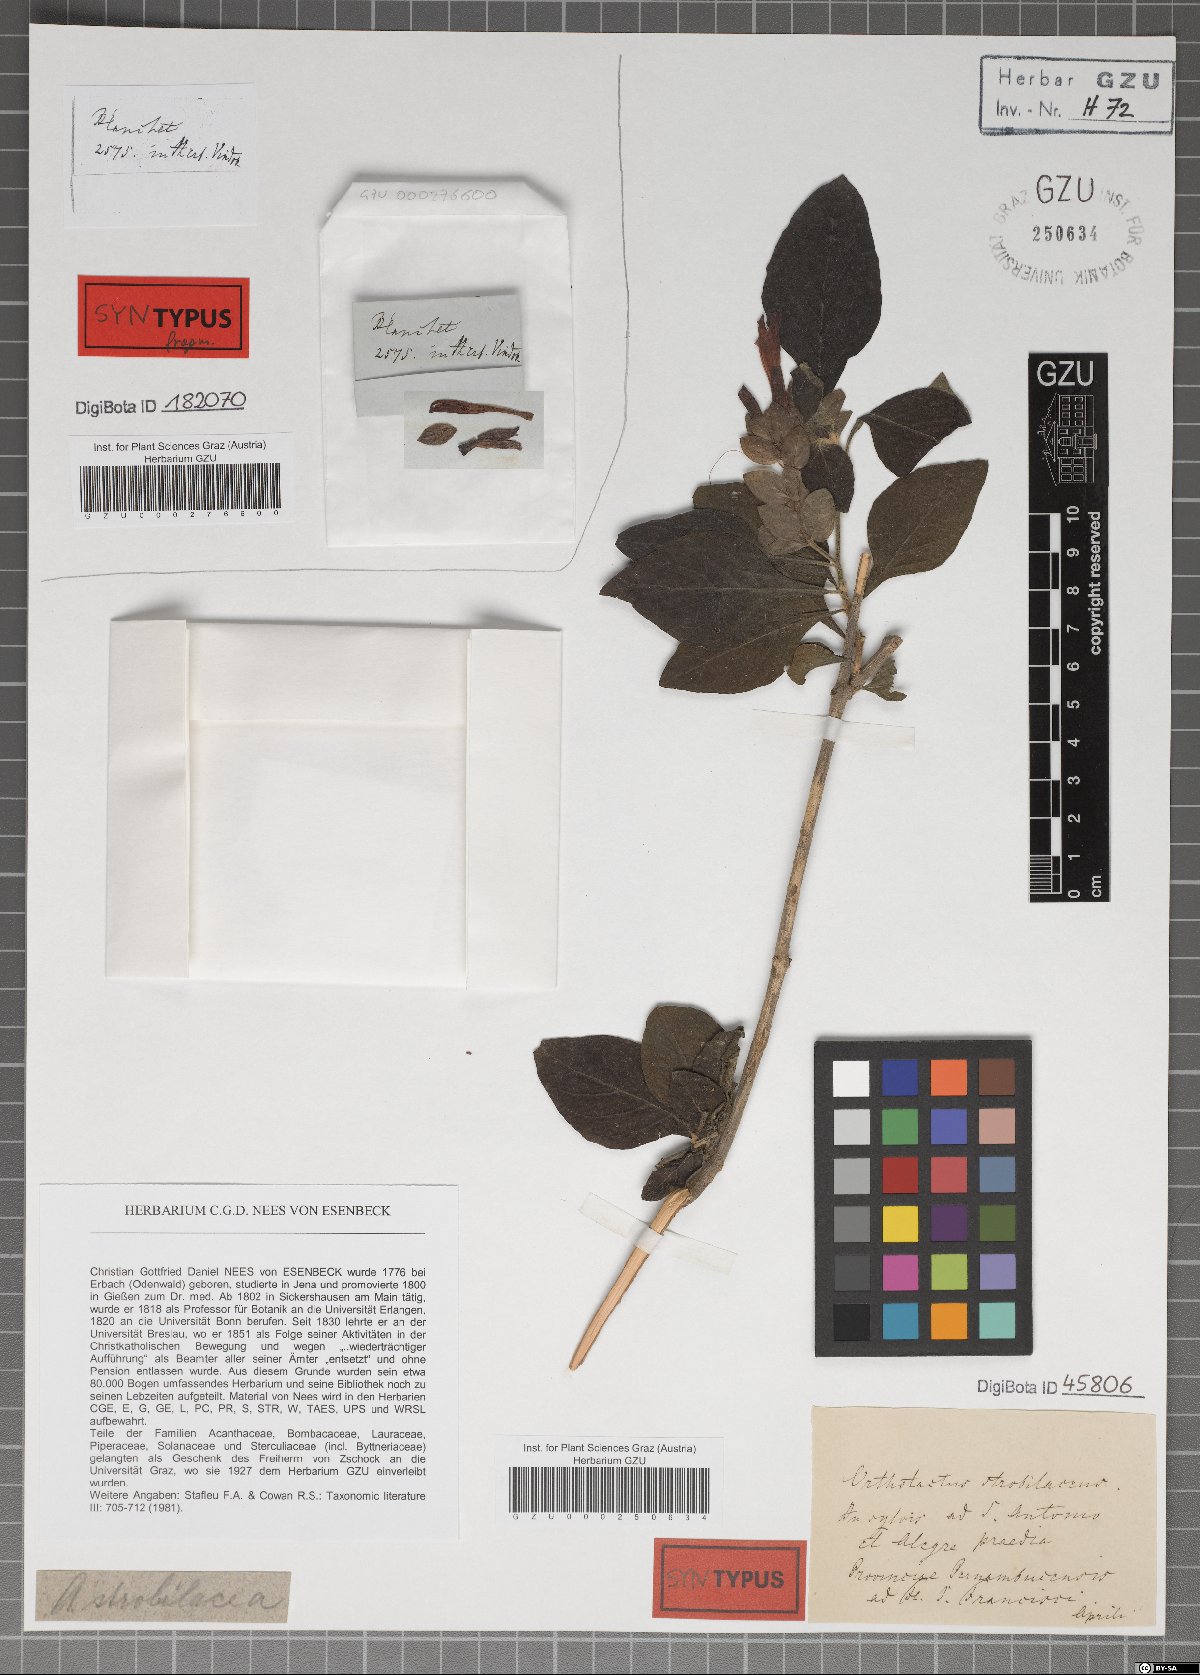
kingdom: Plantae
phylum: Tracheophyta
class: Magnoliopsida
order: Lamiales
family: Acanthaceae
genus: Justicia
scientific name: Justicia aequilabris
